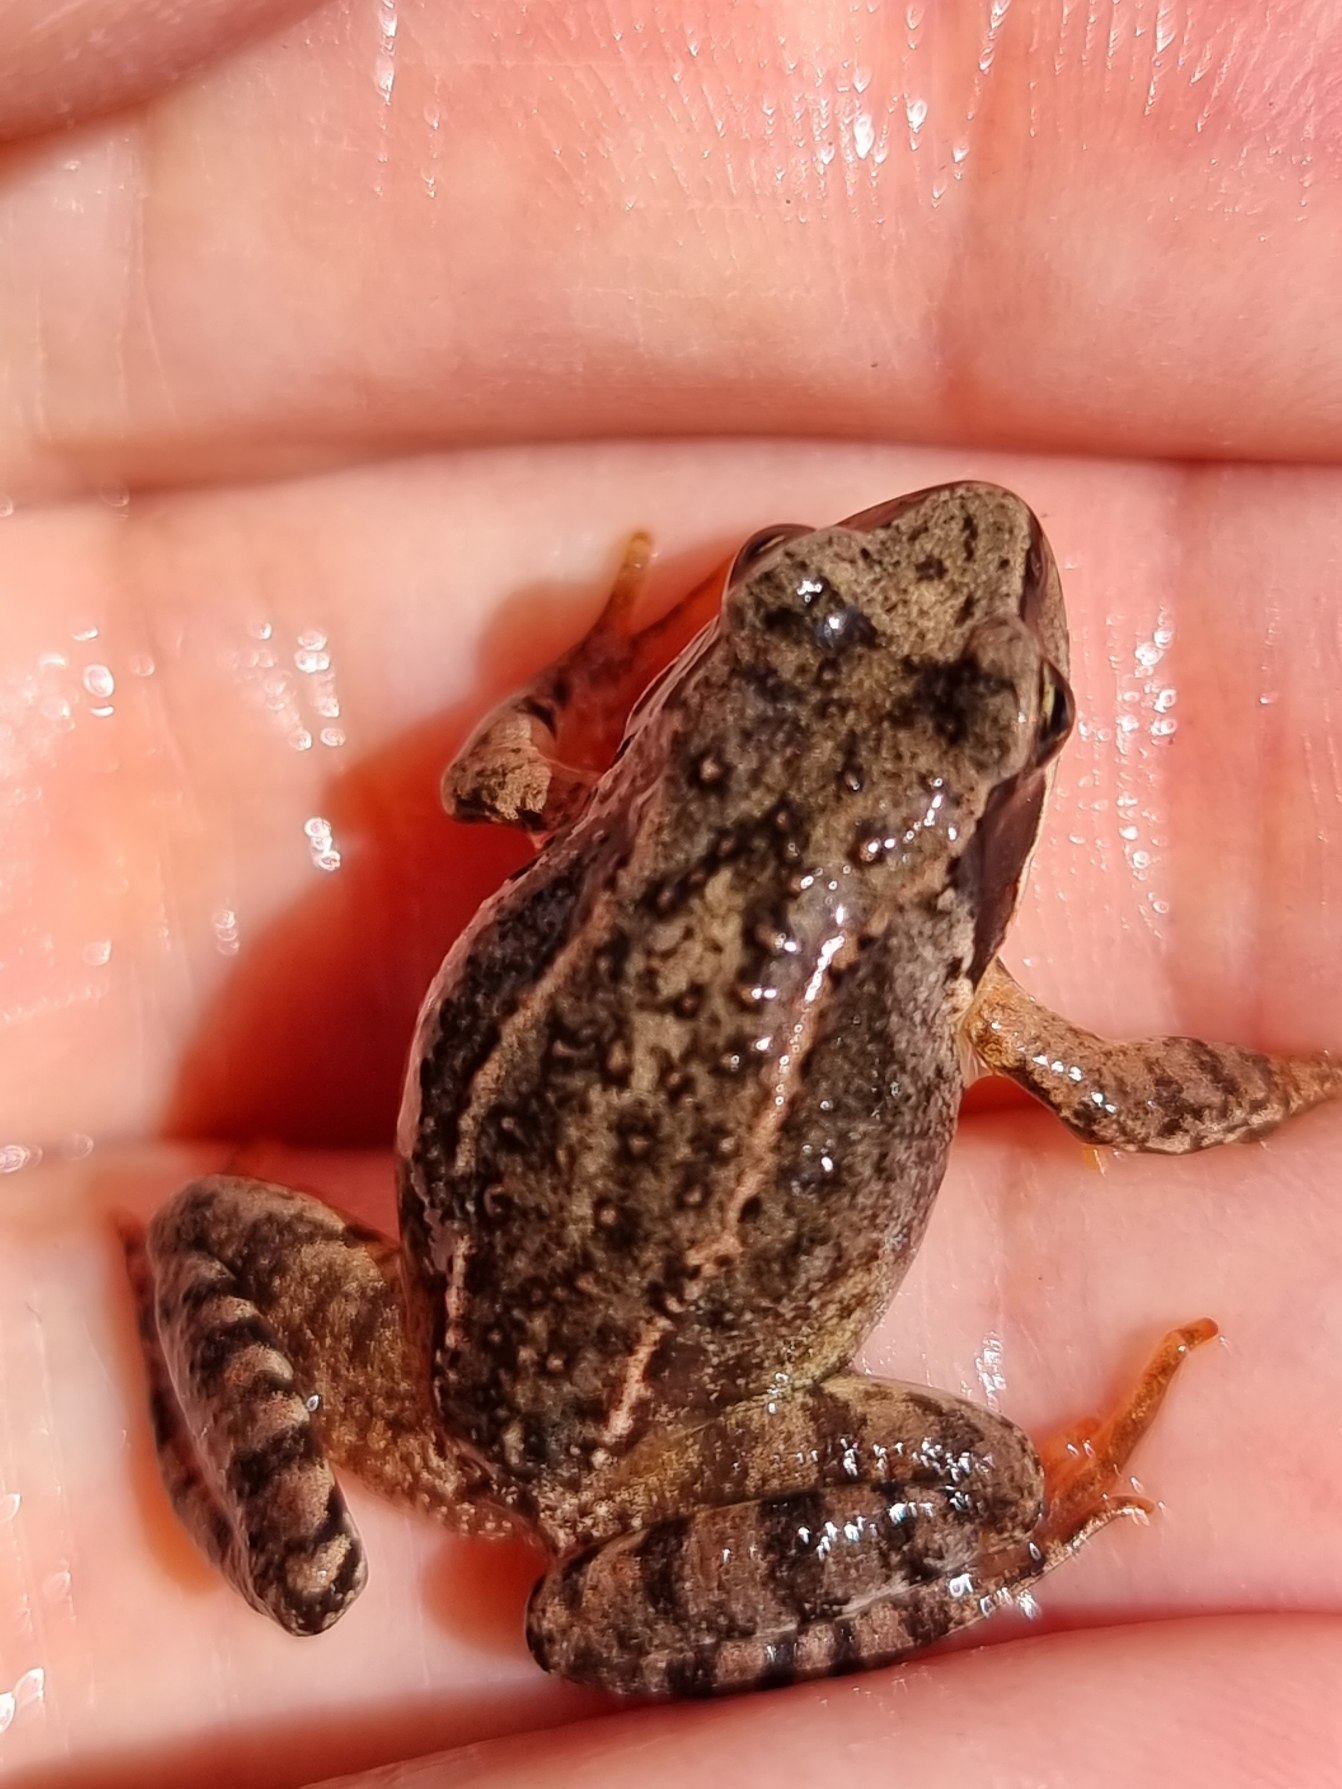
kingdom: Animalia
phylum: Chordata
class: Amphibia
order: Anura
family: Ranidae
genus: Rana
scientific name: Rana temporaria
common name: Butsnudet frø
